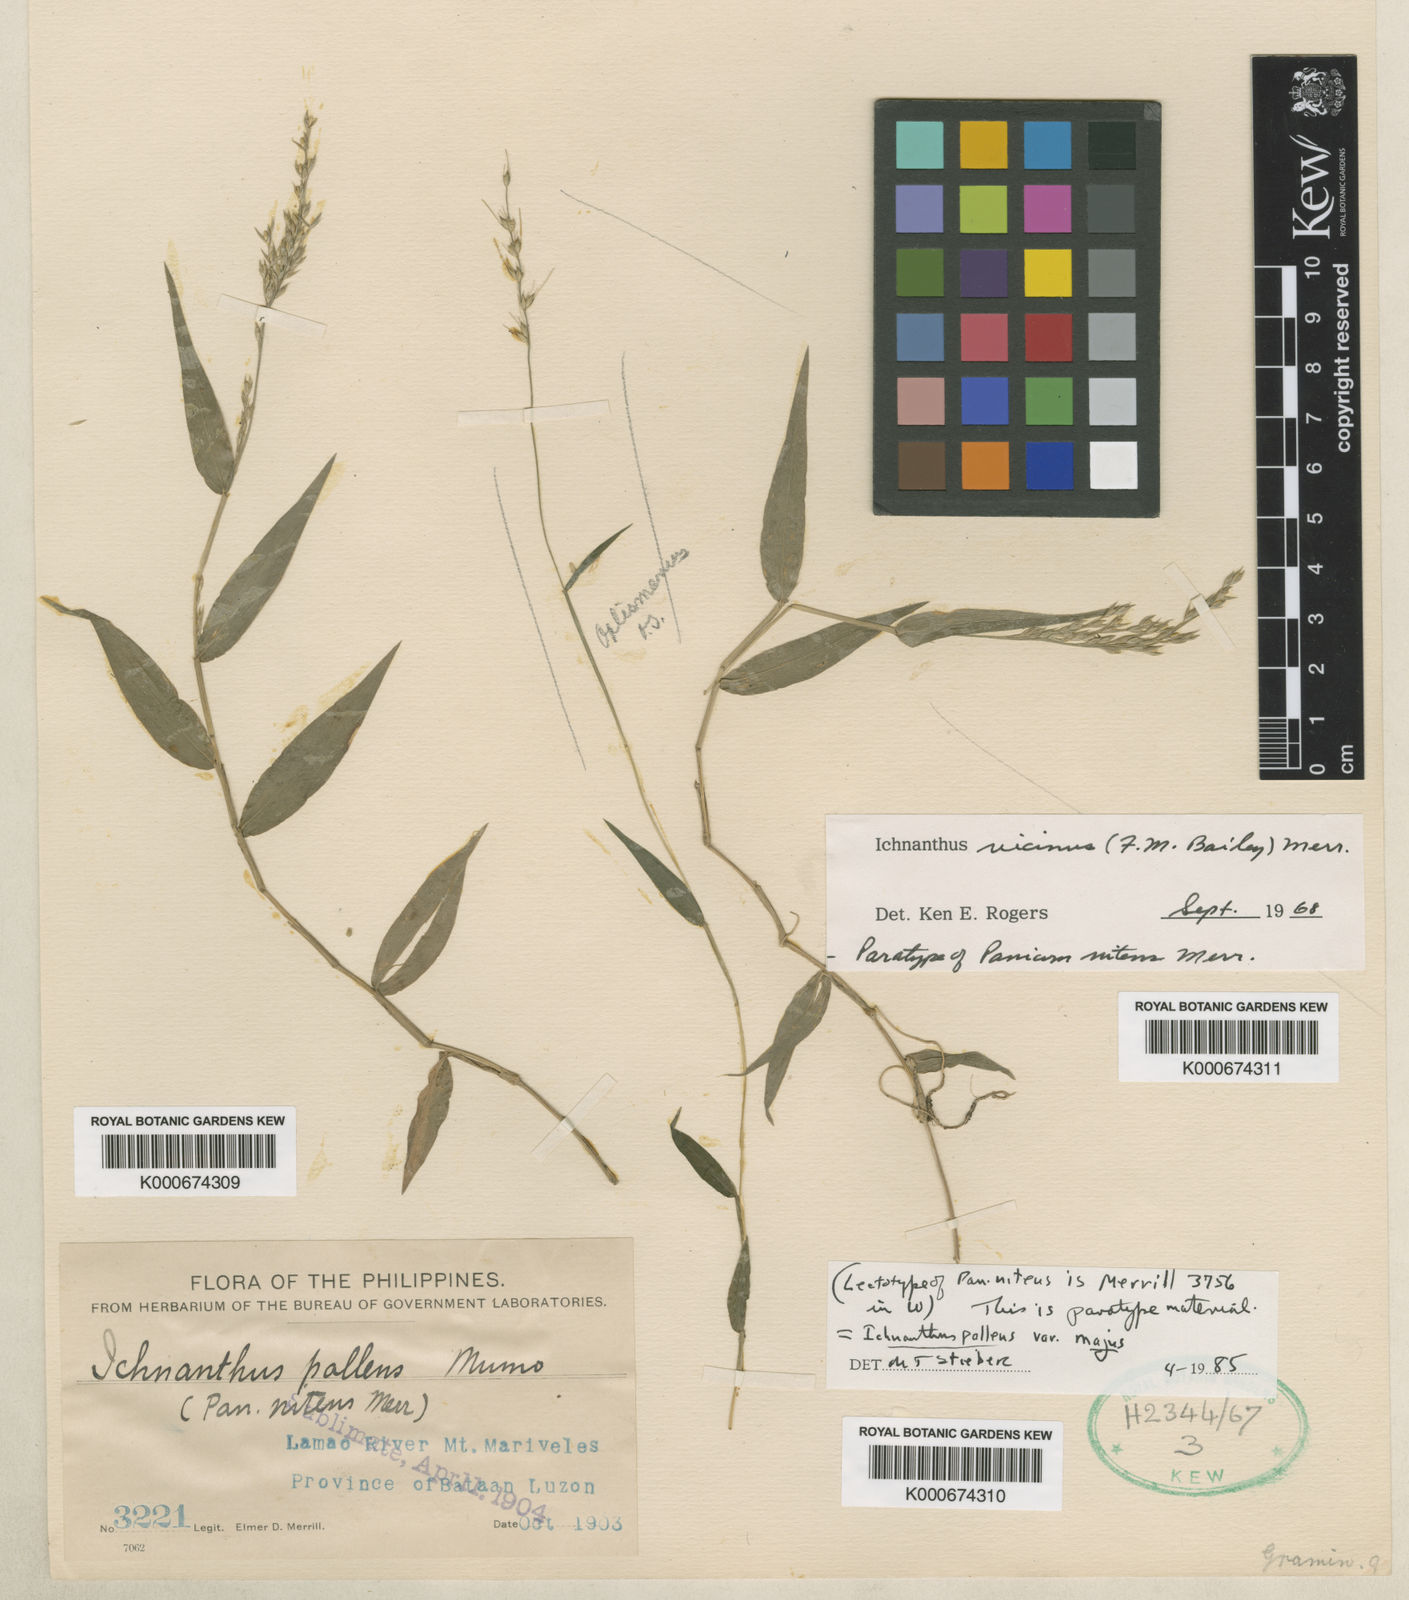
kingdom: Plantae
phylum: Tracheophyta
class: Liliopsida
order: Poales
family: Poaceae
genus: Ichnanthus
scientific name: Ichnanthus pallens
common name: Water grass
